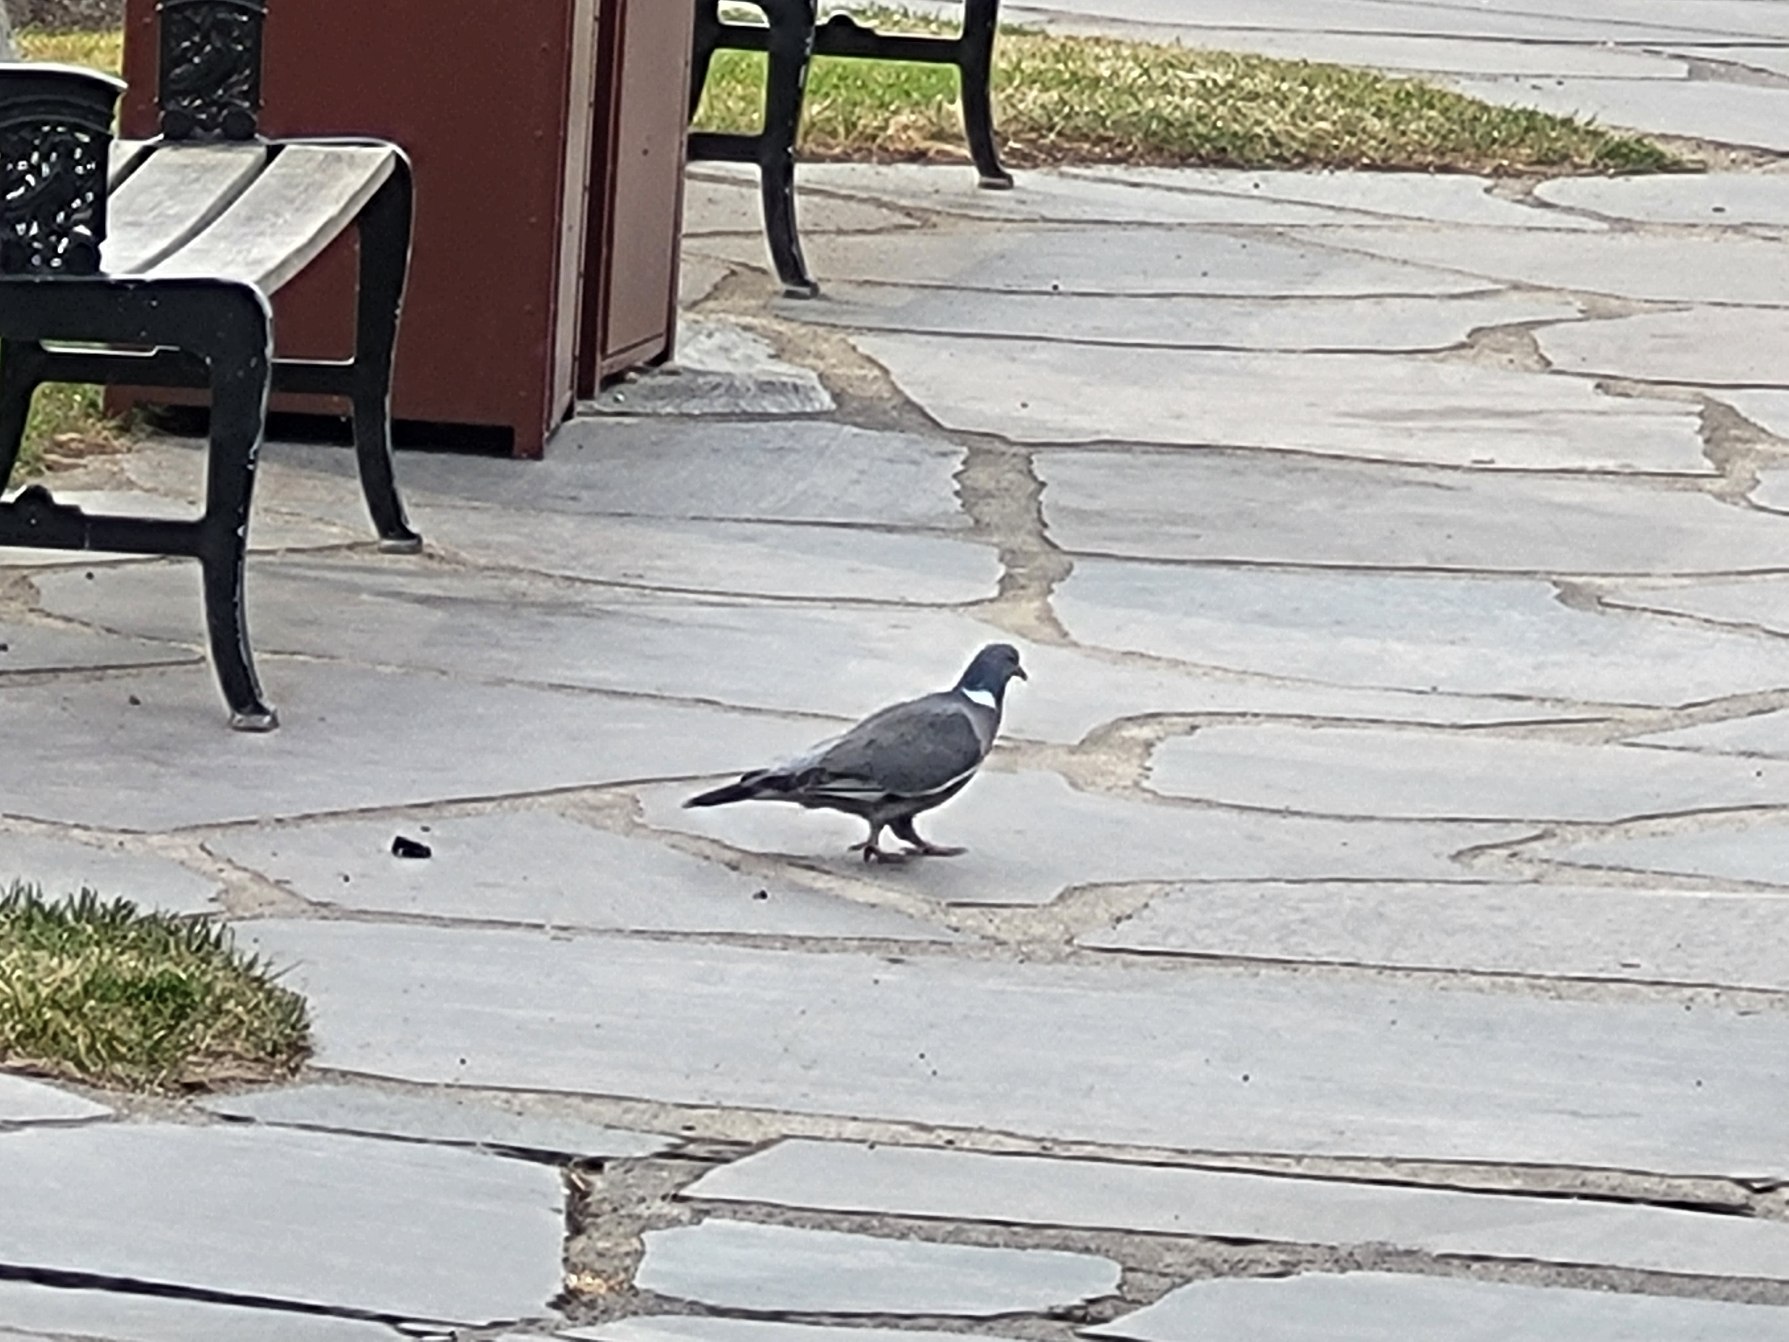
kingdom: Animalia
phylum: Chordata
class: Aves
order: Columbiformes
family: Columbidae
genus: Columba
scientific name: Columba palumbus
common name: Ringdue
